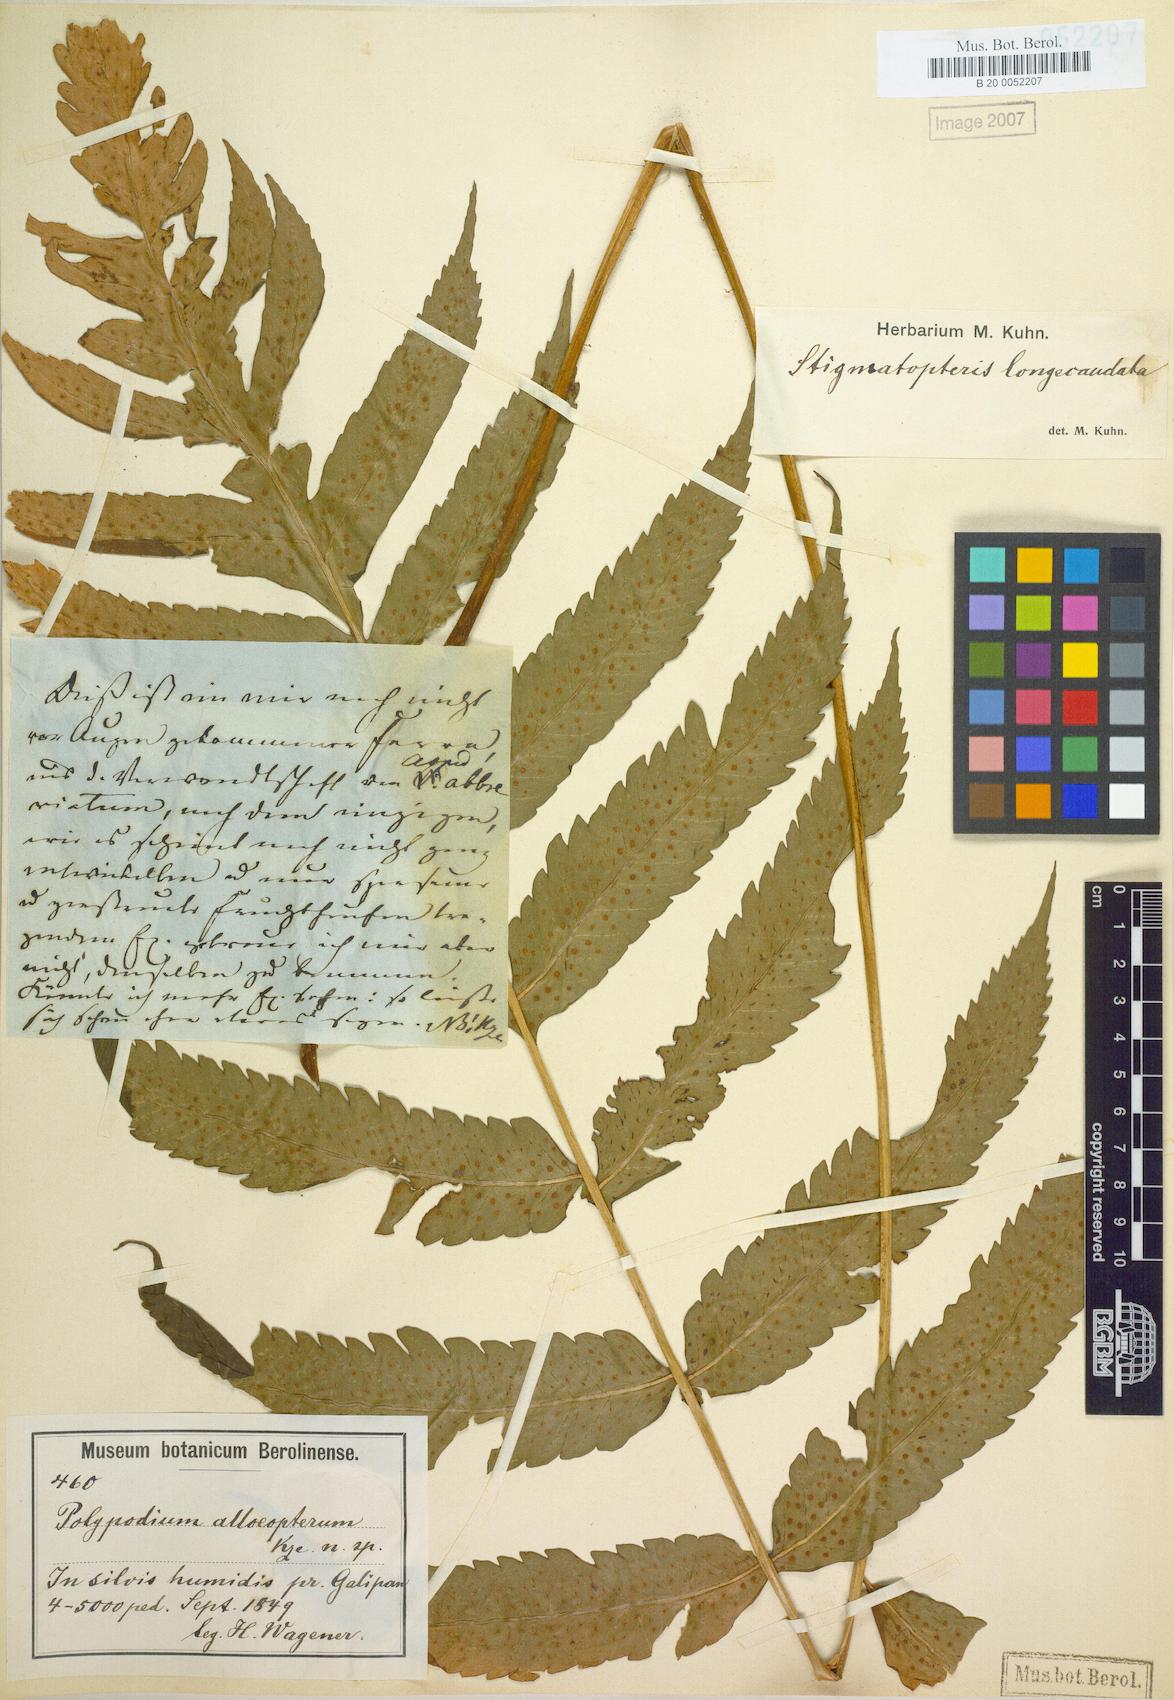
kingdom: Plantae
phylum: Tracheophyta
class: Polypodiopsida
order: Polypodiales
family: Dryopteridaceae
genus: Stigmatopteris
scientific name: Stigmatopteris alloeoptera
